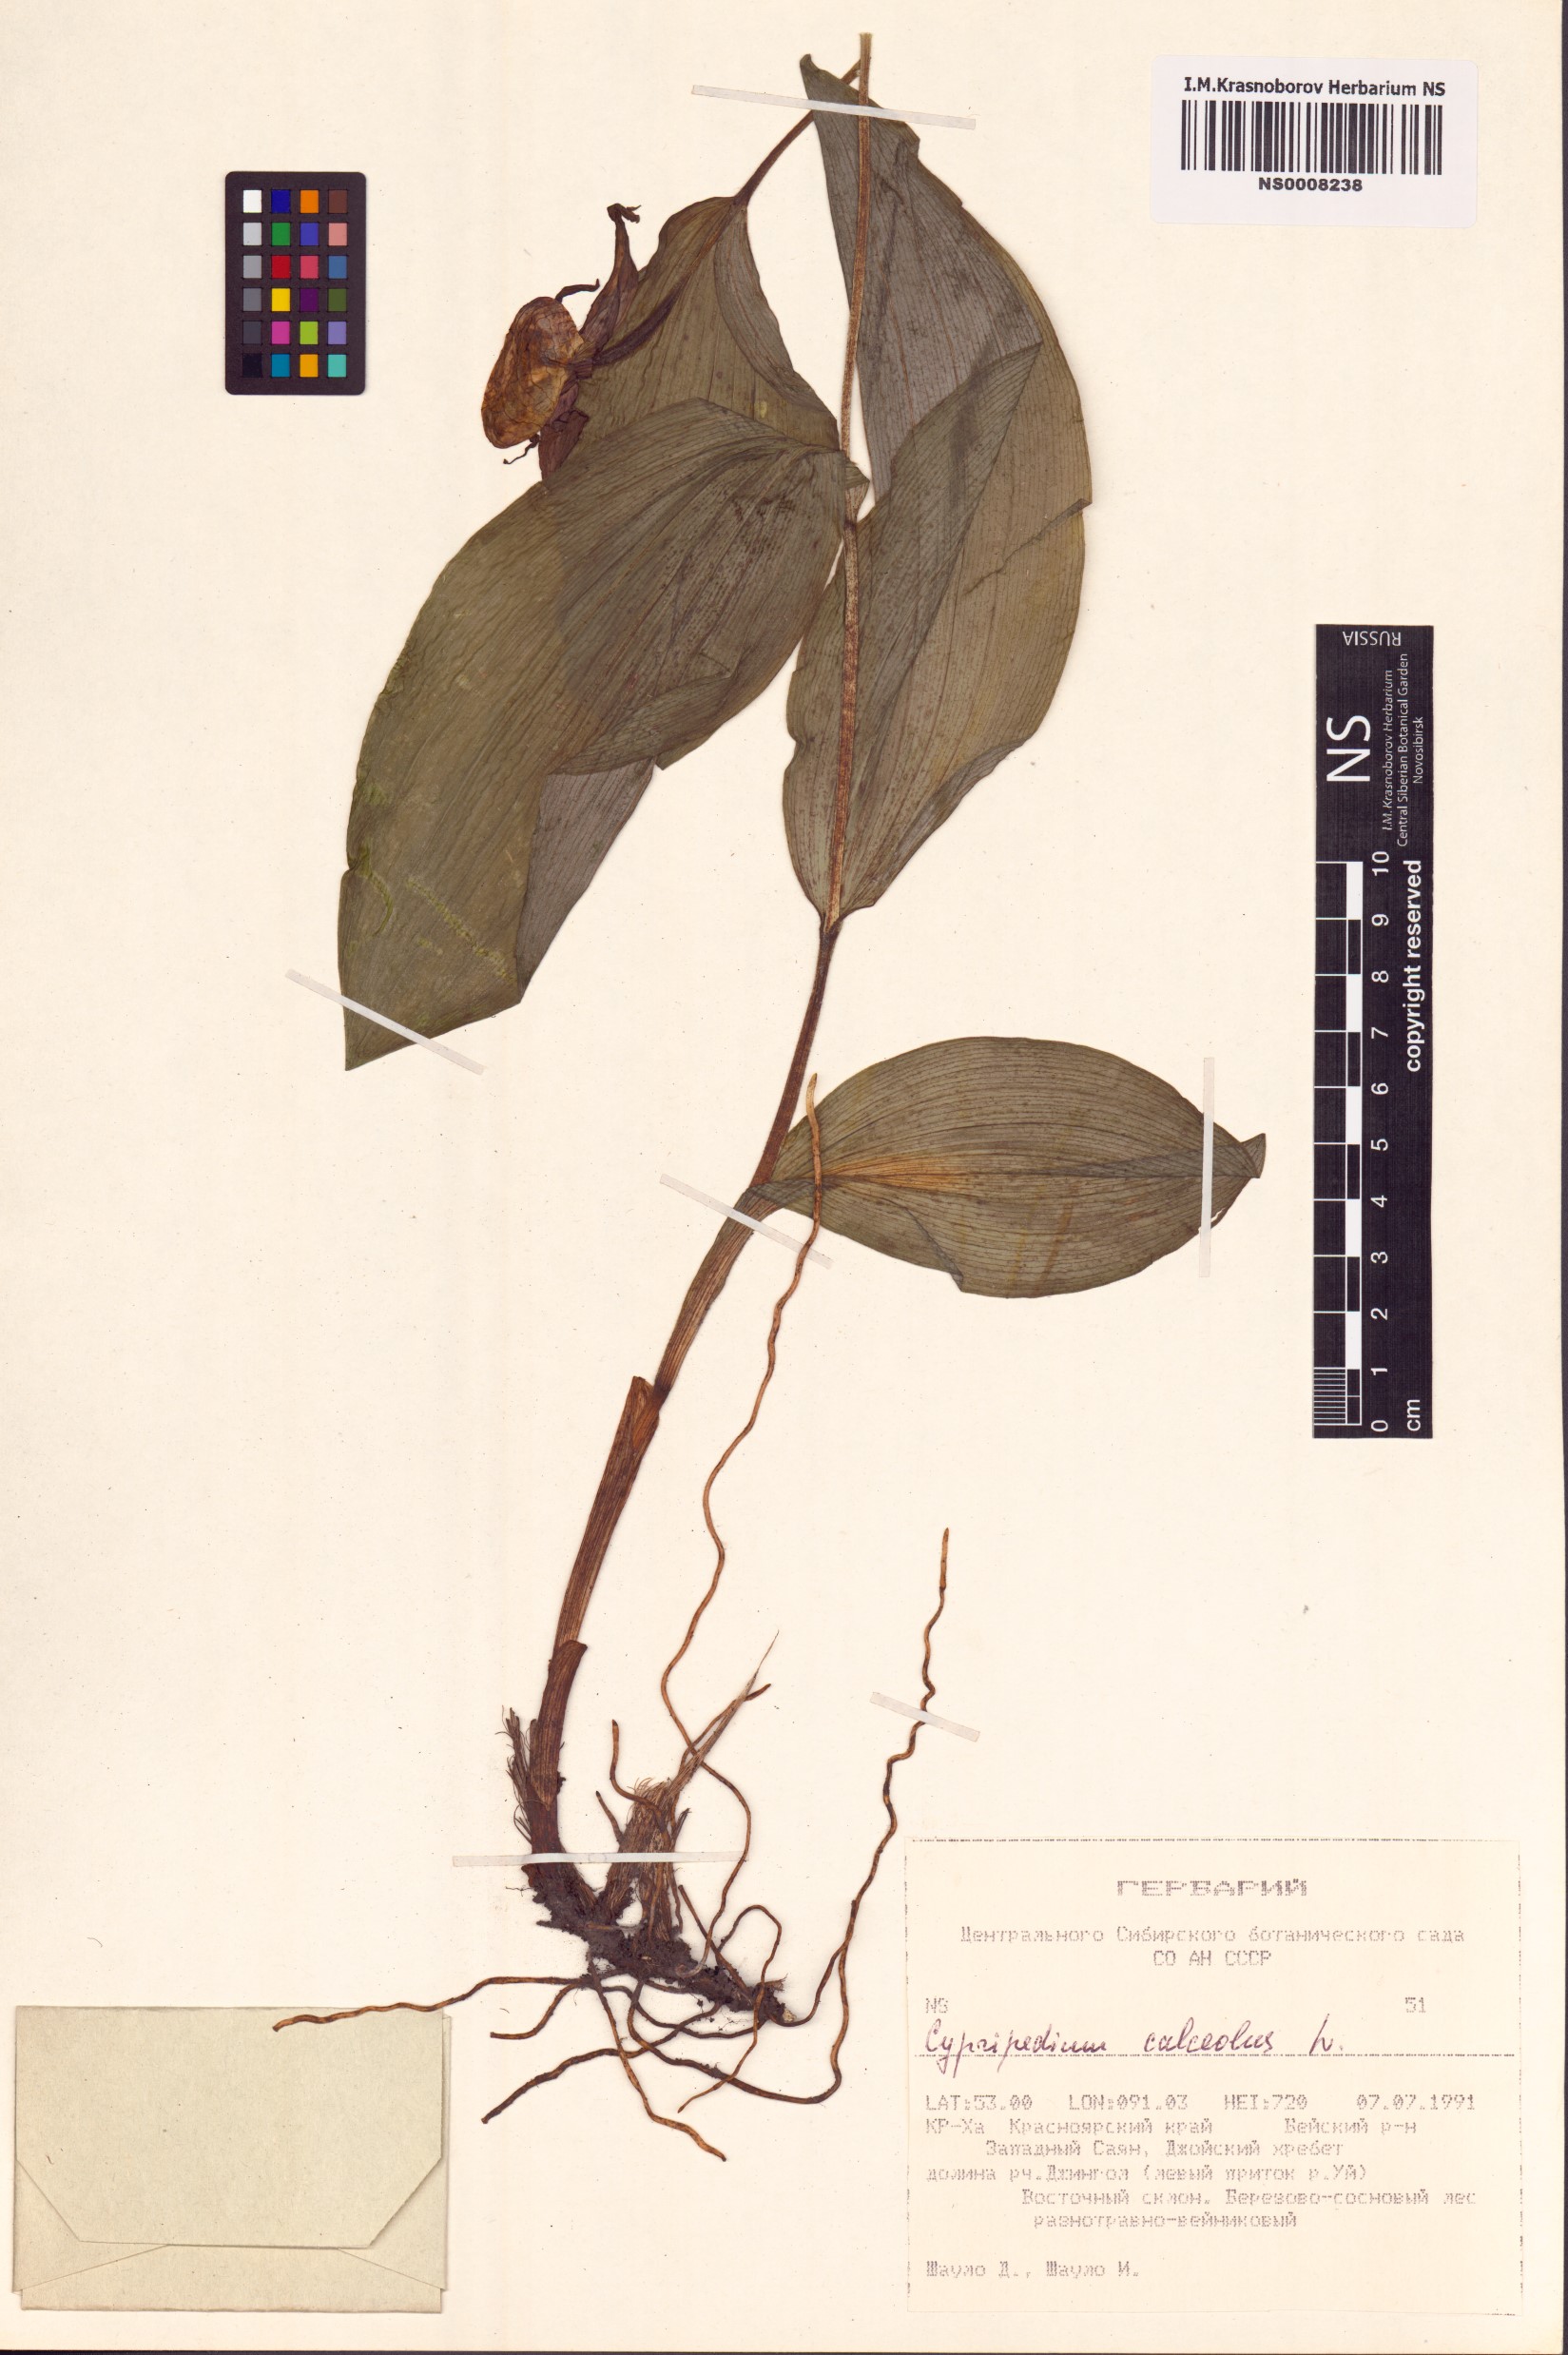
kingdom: Plantae
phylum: Tracheophyta
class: Liliopsida
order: Asparagales
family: Orchidaceae
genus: Cypripedium
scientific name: Cypripedium calceolus
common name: Lady's-slipper
